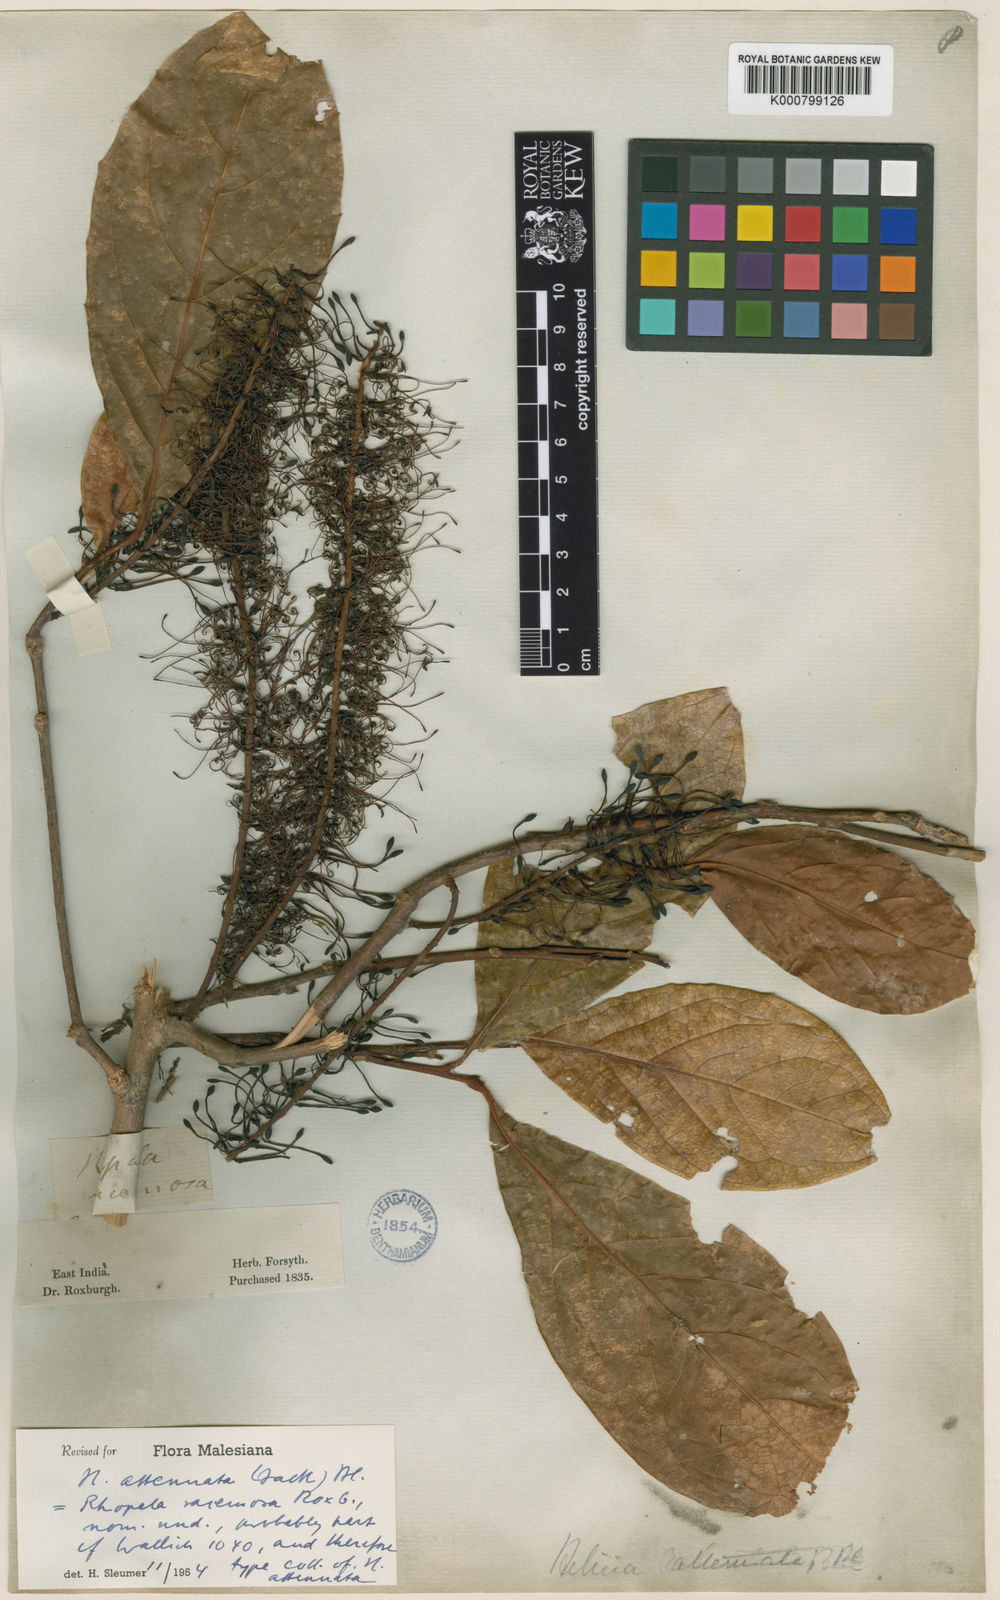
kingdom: Plantae
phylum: Tracheophyta
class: Magnoliopsida
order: Proteales
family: Proteaceae
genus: Helicia
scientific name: Helicia attenuata
